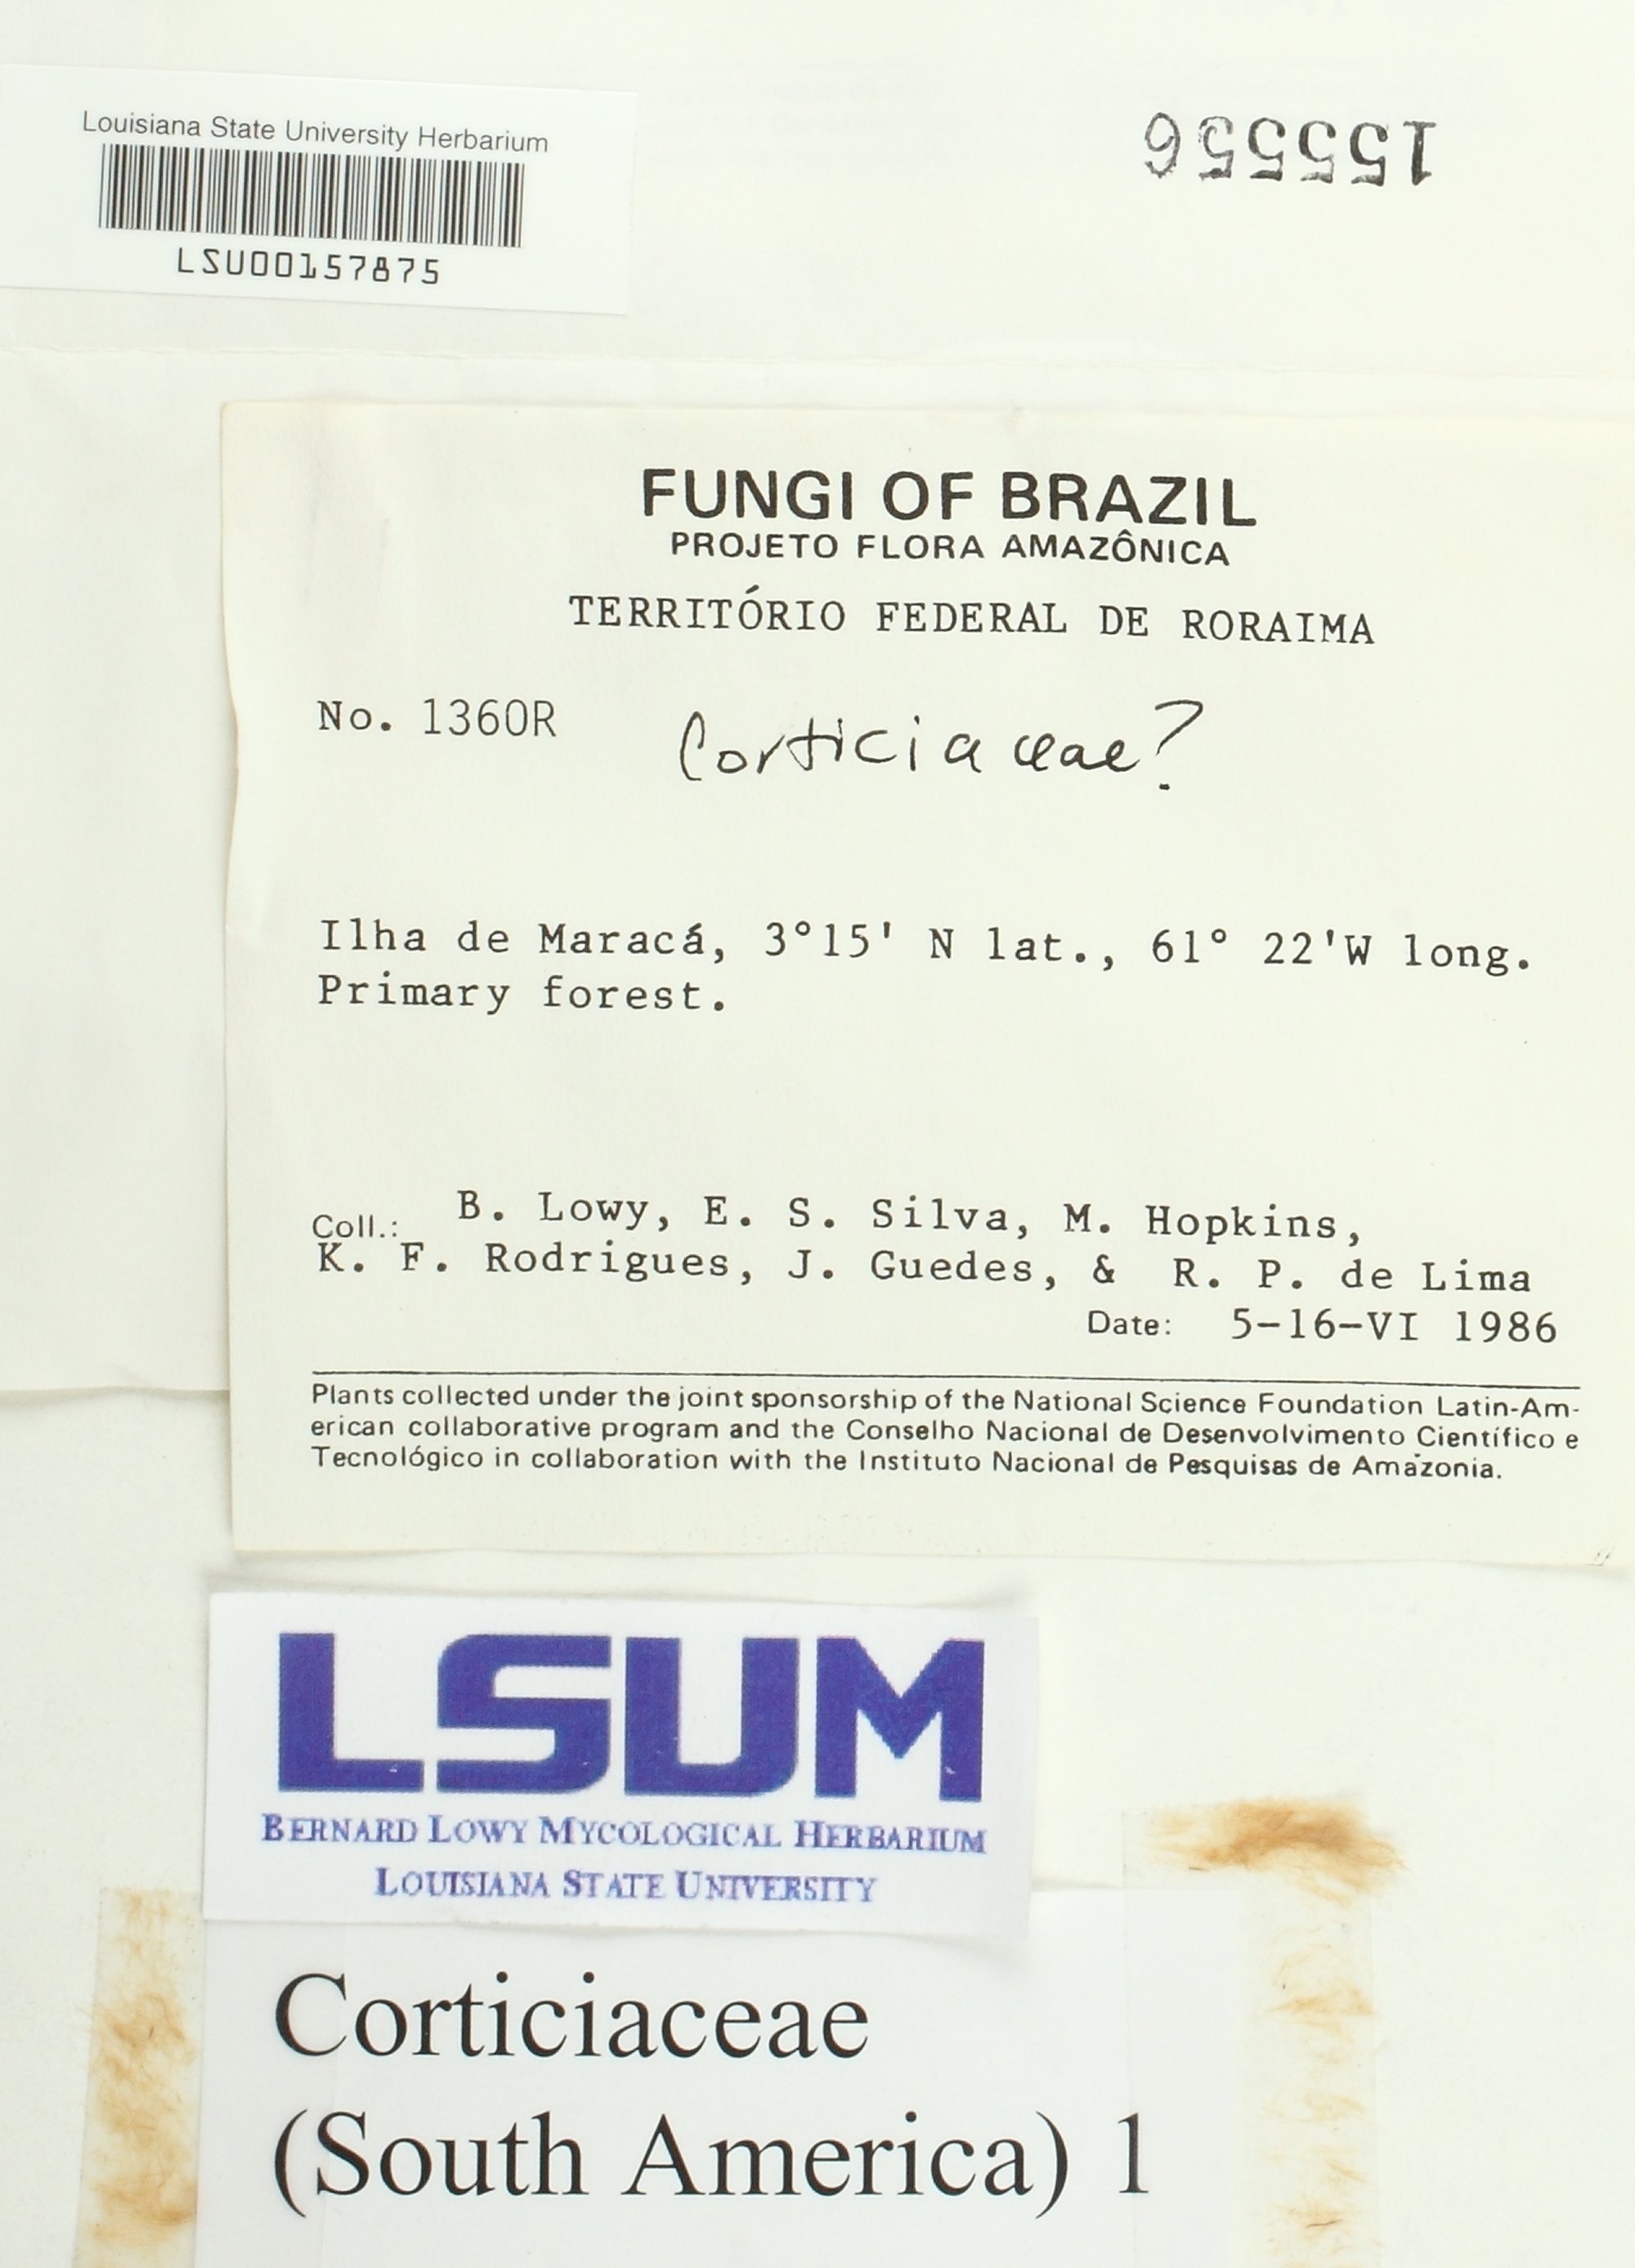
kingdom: Fungi
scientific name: Fungi
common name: Fungi
